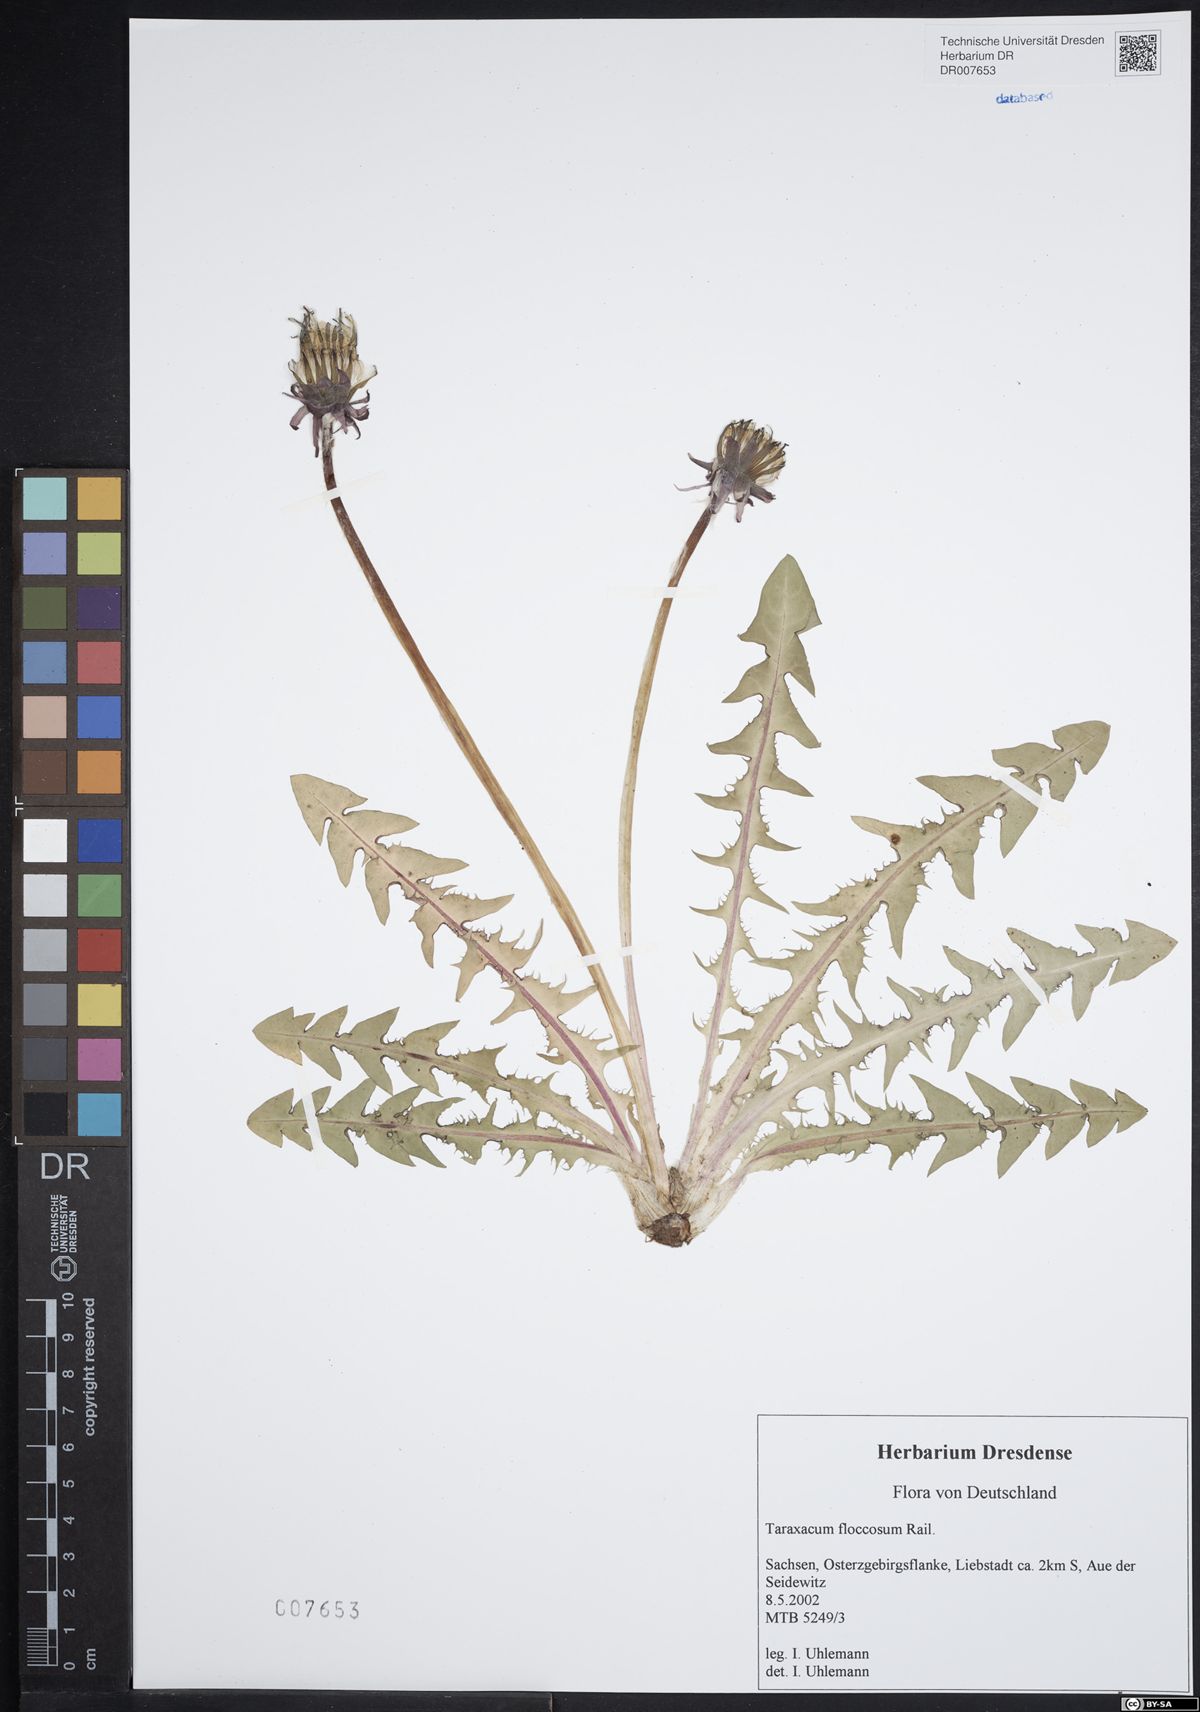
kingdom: Plantae
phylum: Tracheophyta
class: Magnoliopsida
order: Asterales
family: Asteraceae
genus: Taraxacum
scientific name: Taraxacum floccosum
